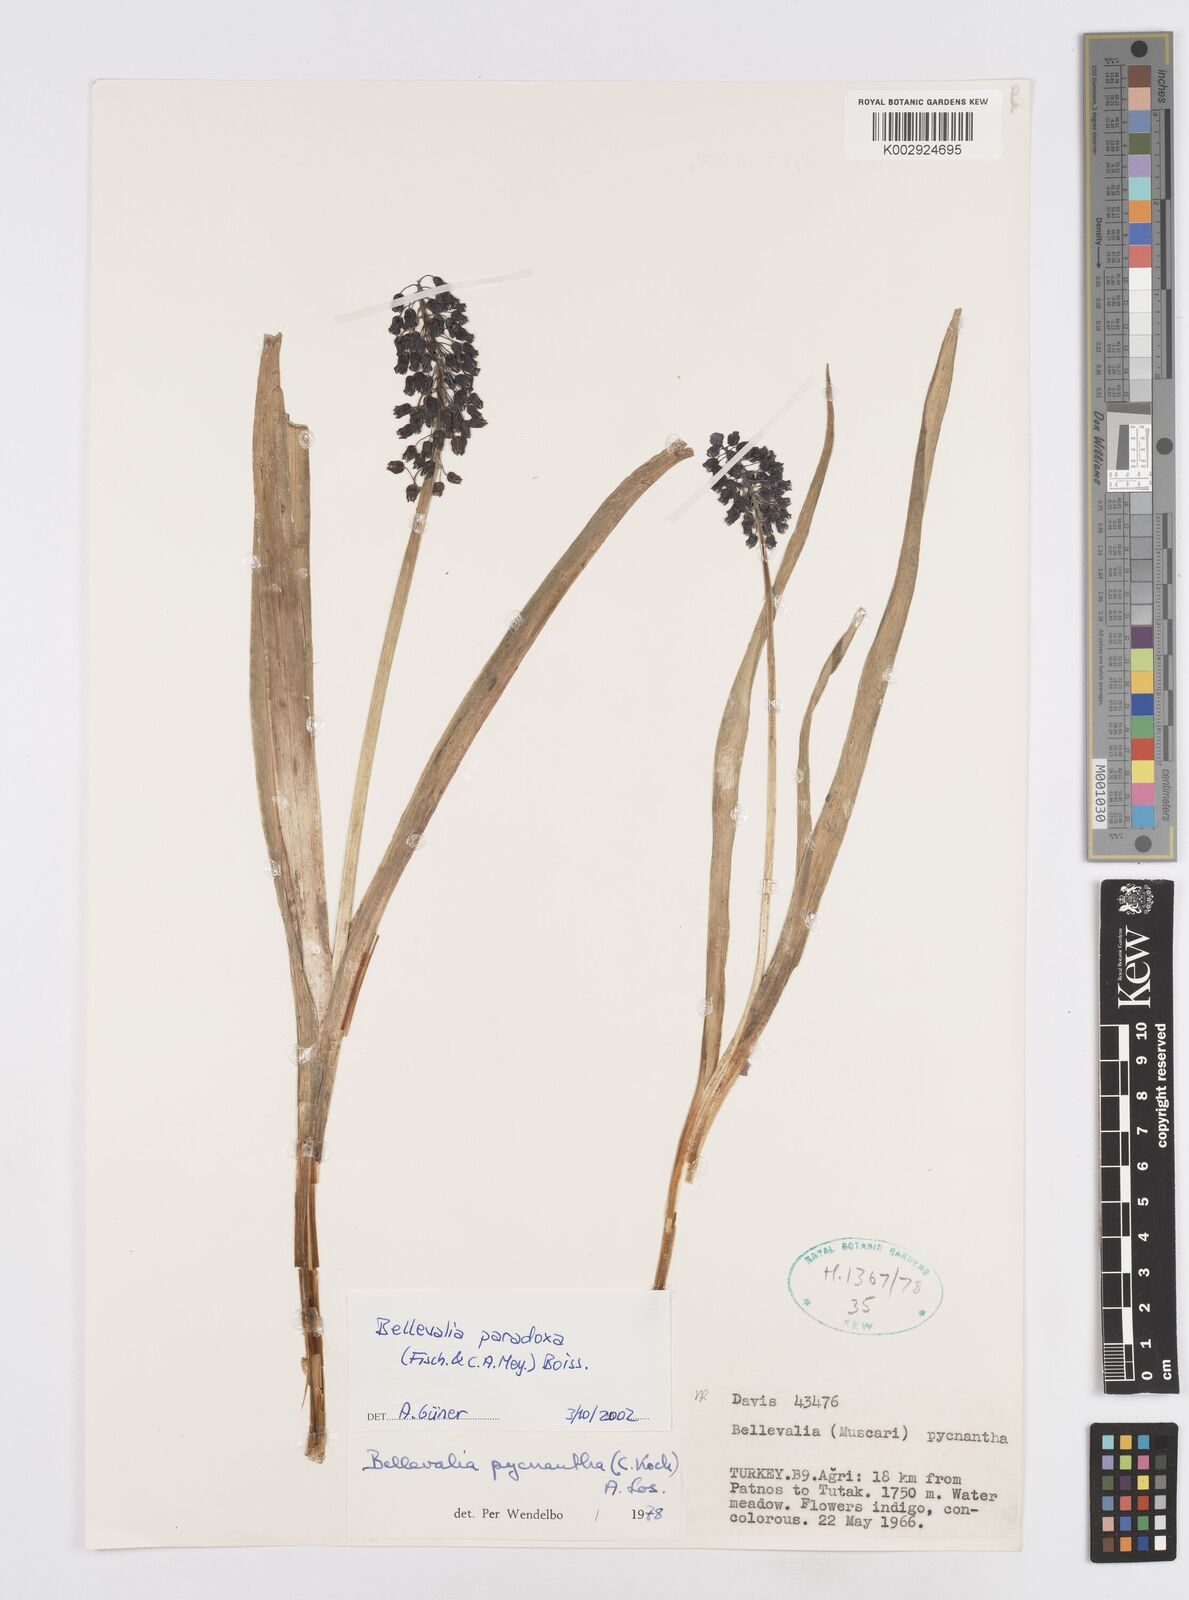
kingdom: Plantae
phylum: Tracheophyta
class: Liliopsida
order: Asparagales
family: Asparagaceae
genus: Bellevalia
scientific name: Bellevalia paradoxa
